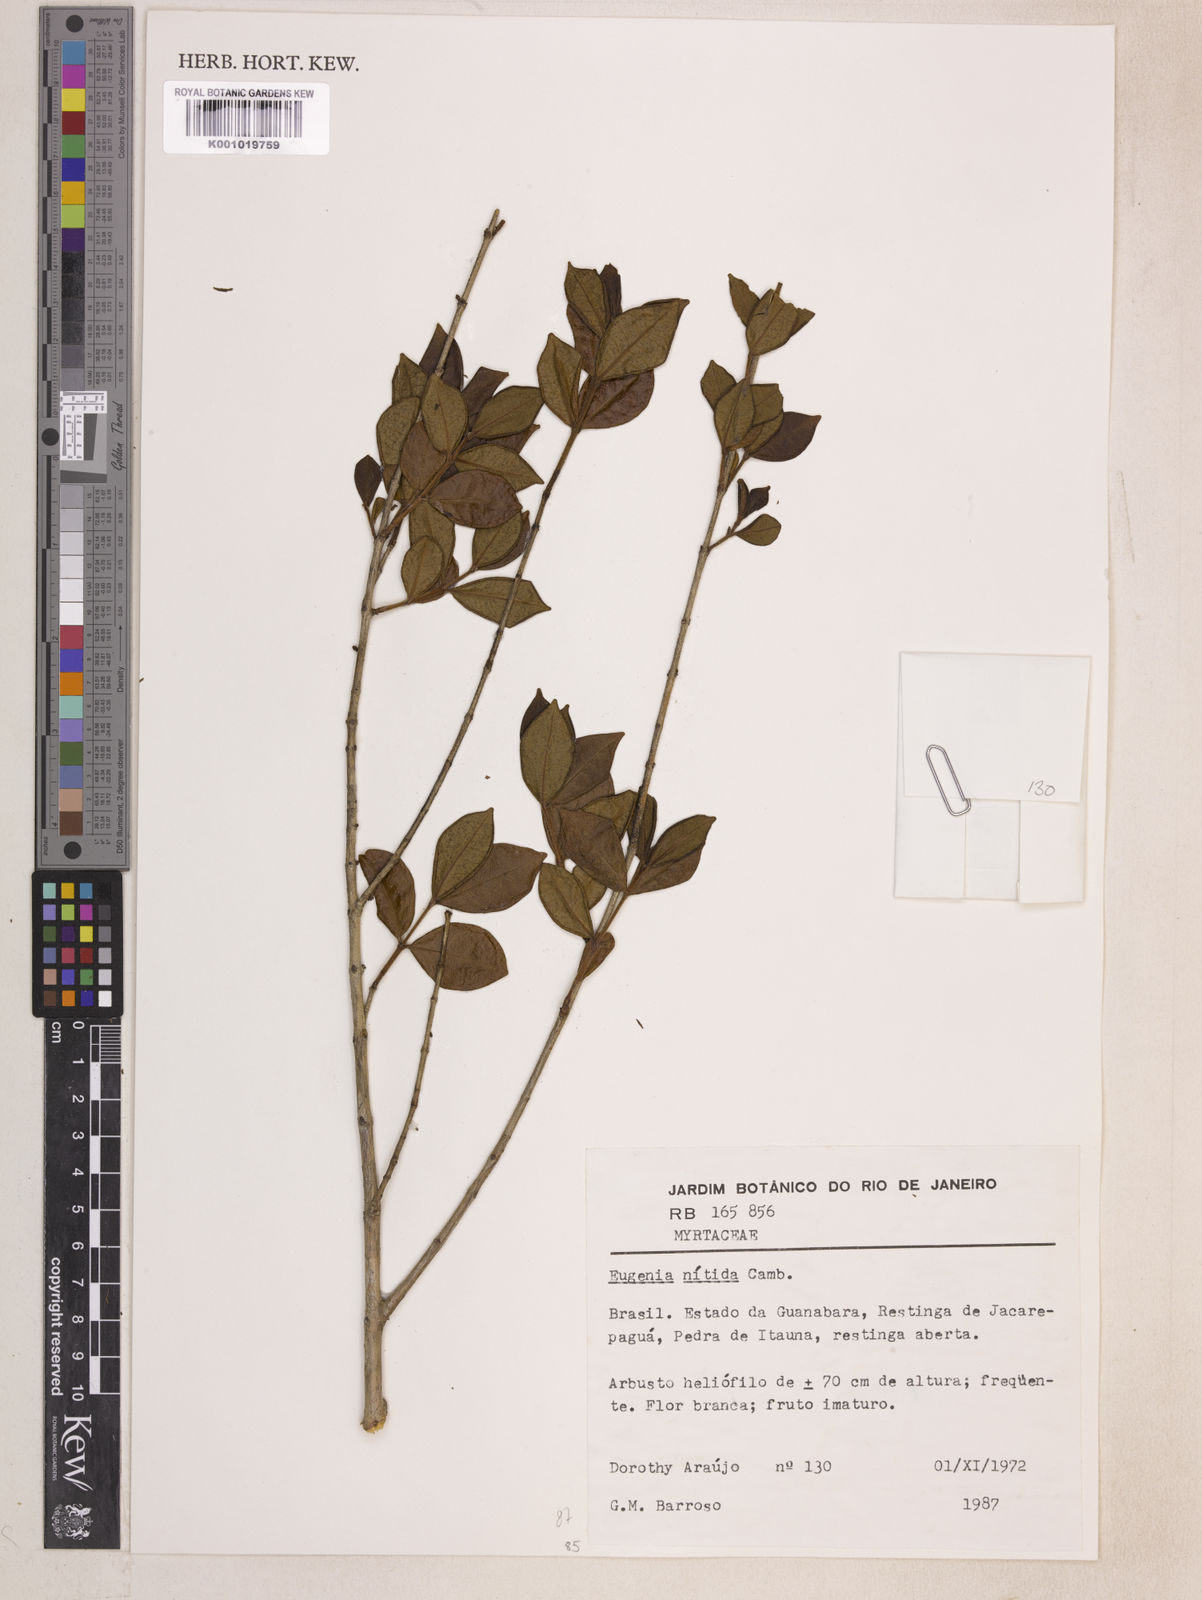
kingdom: Plantae
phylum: Tracheophyta
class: Magnoliopsida
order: Myrtales
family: Myrtaceae
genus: Eugenia
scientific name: Eugenia selloi
